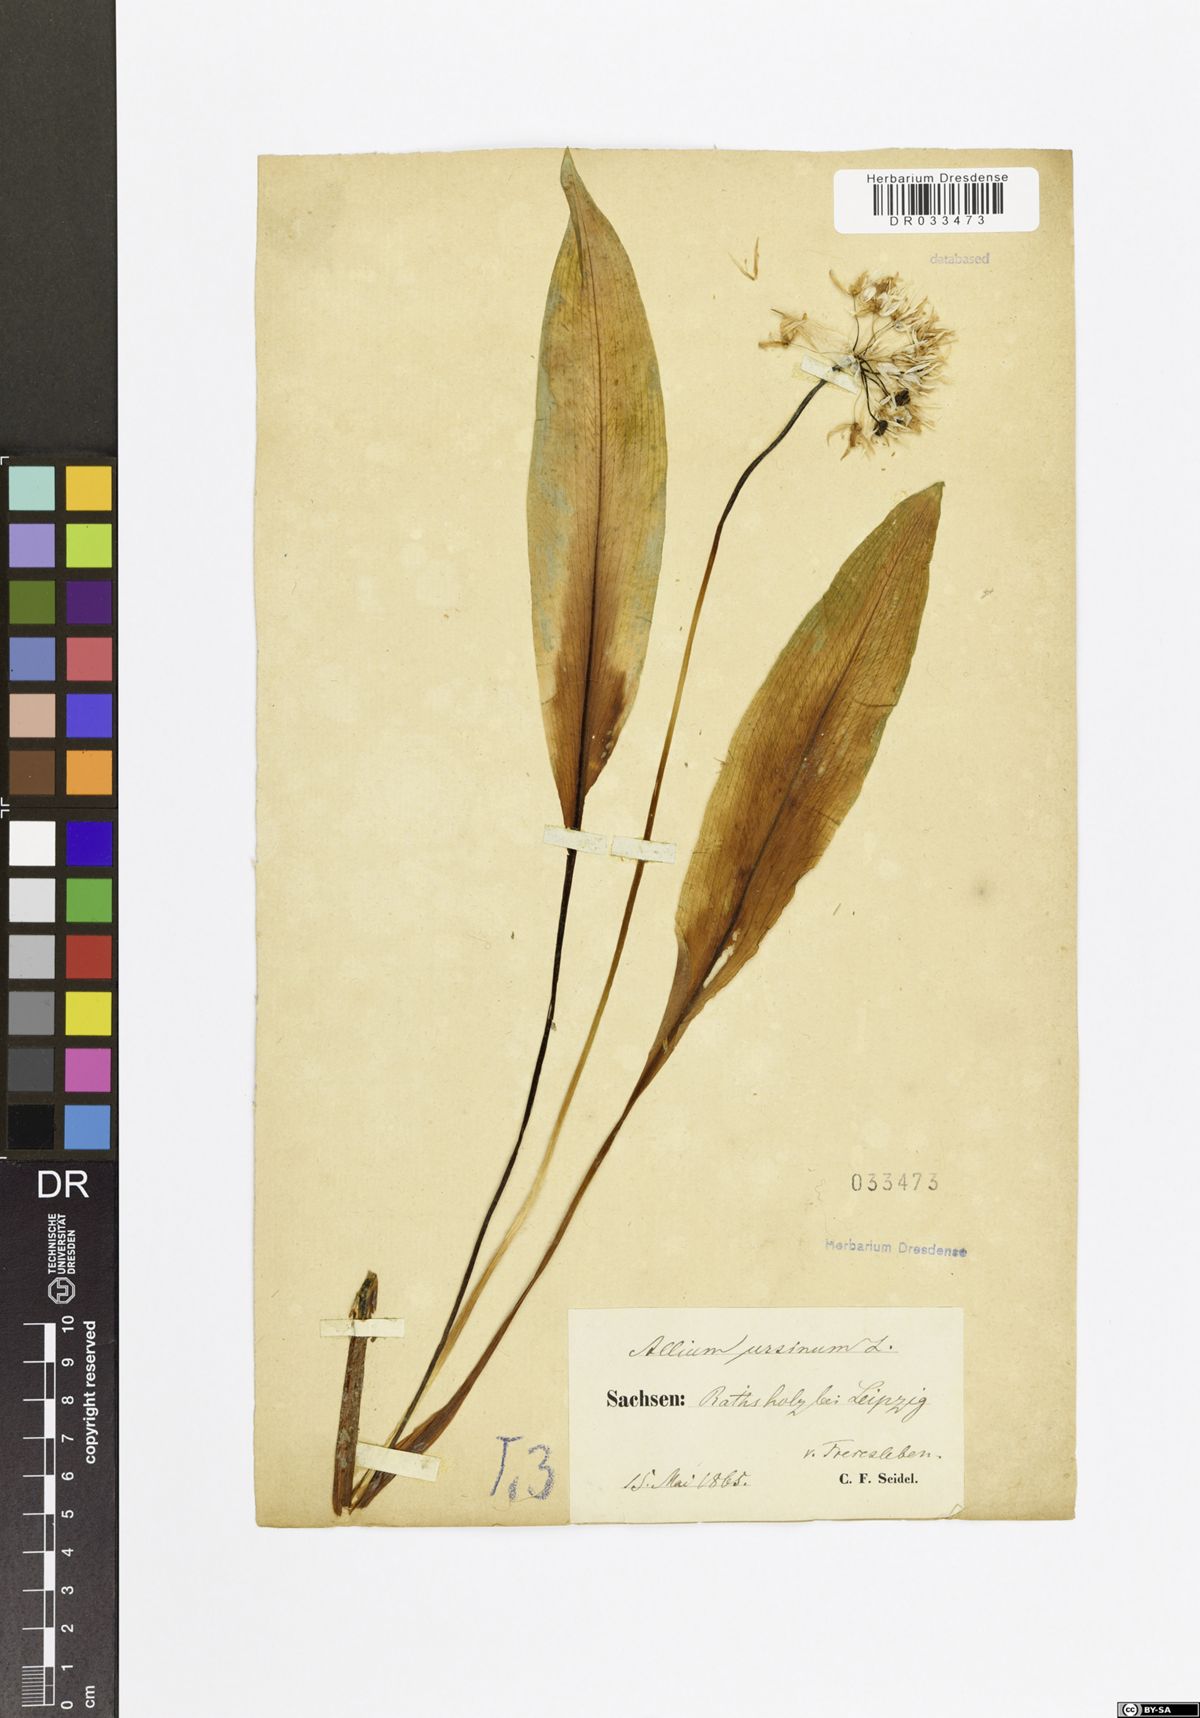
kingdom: Plantae
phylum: Tracheophyta
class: Liliopsida
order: Asparagales
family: Amaryllidaceae
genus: Allium
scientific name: Allium ursinum
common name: Ramsons
